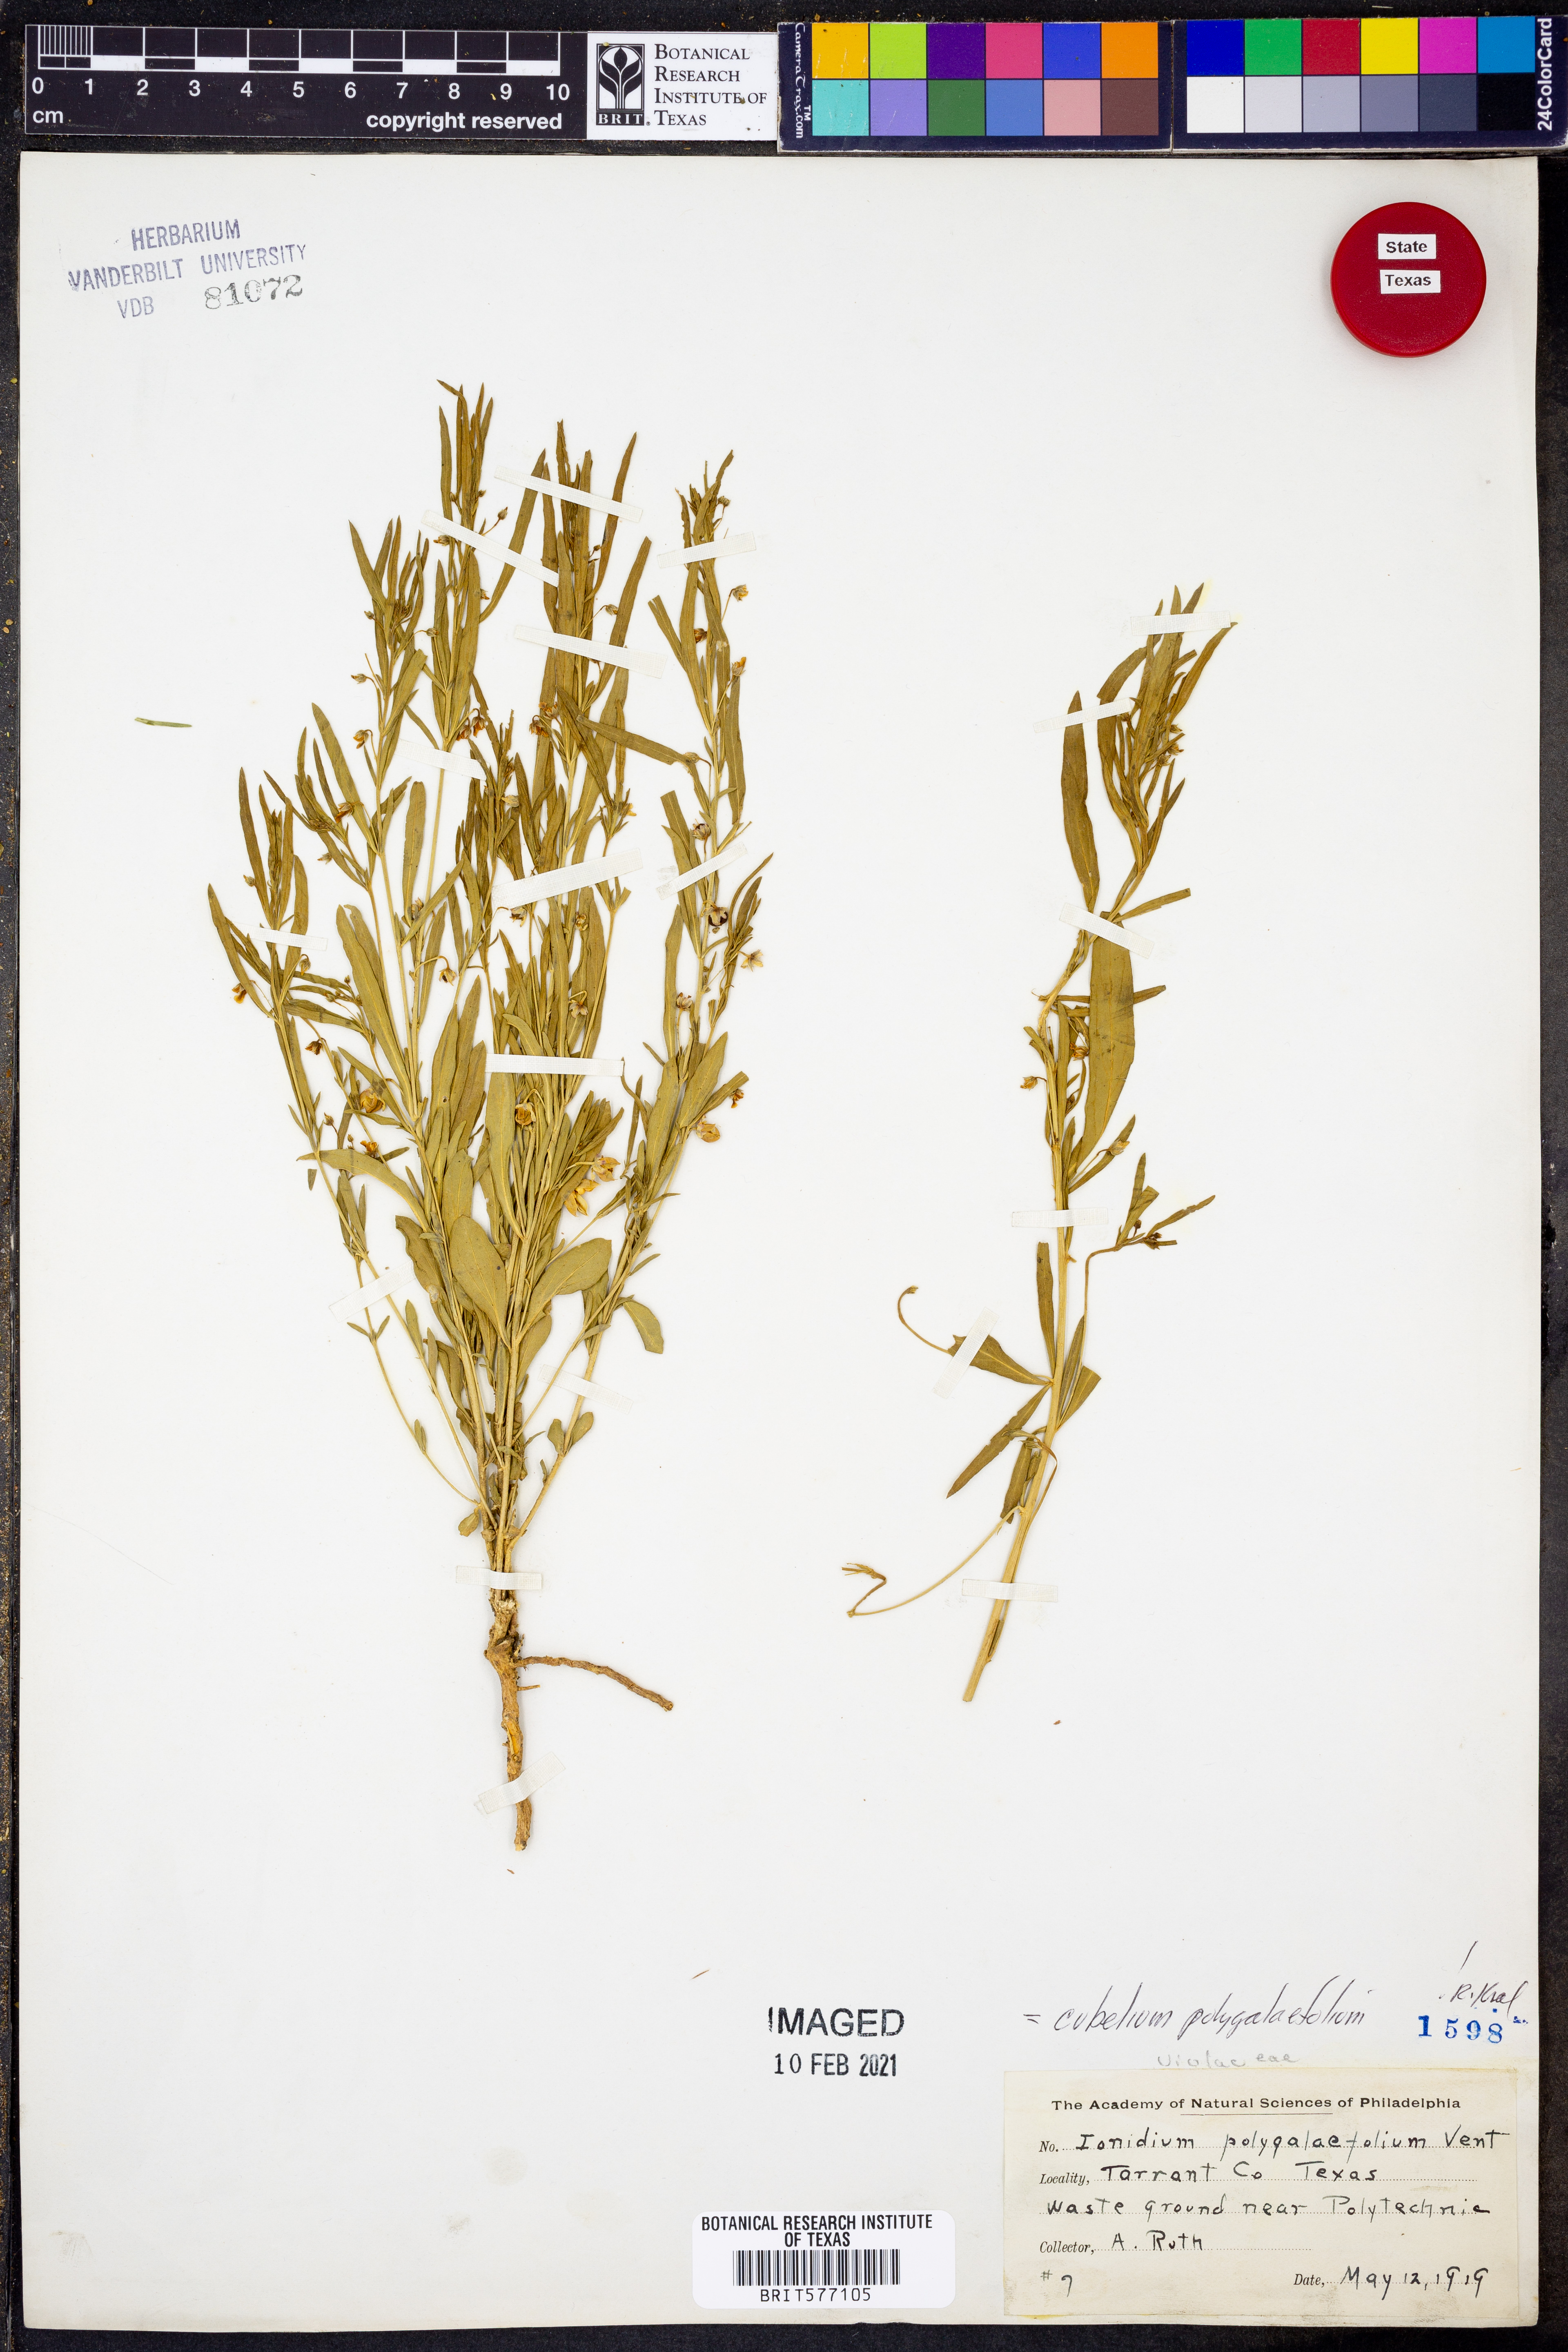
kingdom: Plantae
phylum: Tracheophyta
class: Magnoliopsida
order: Malpighiales
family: Violaceae
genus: Cubelium
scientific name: Cubelium
